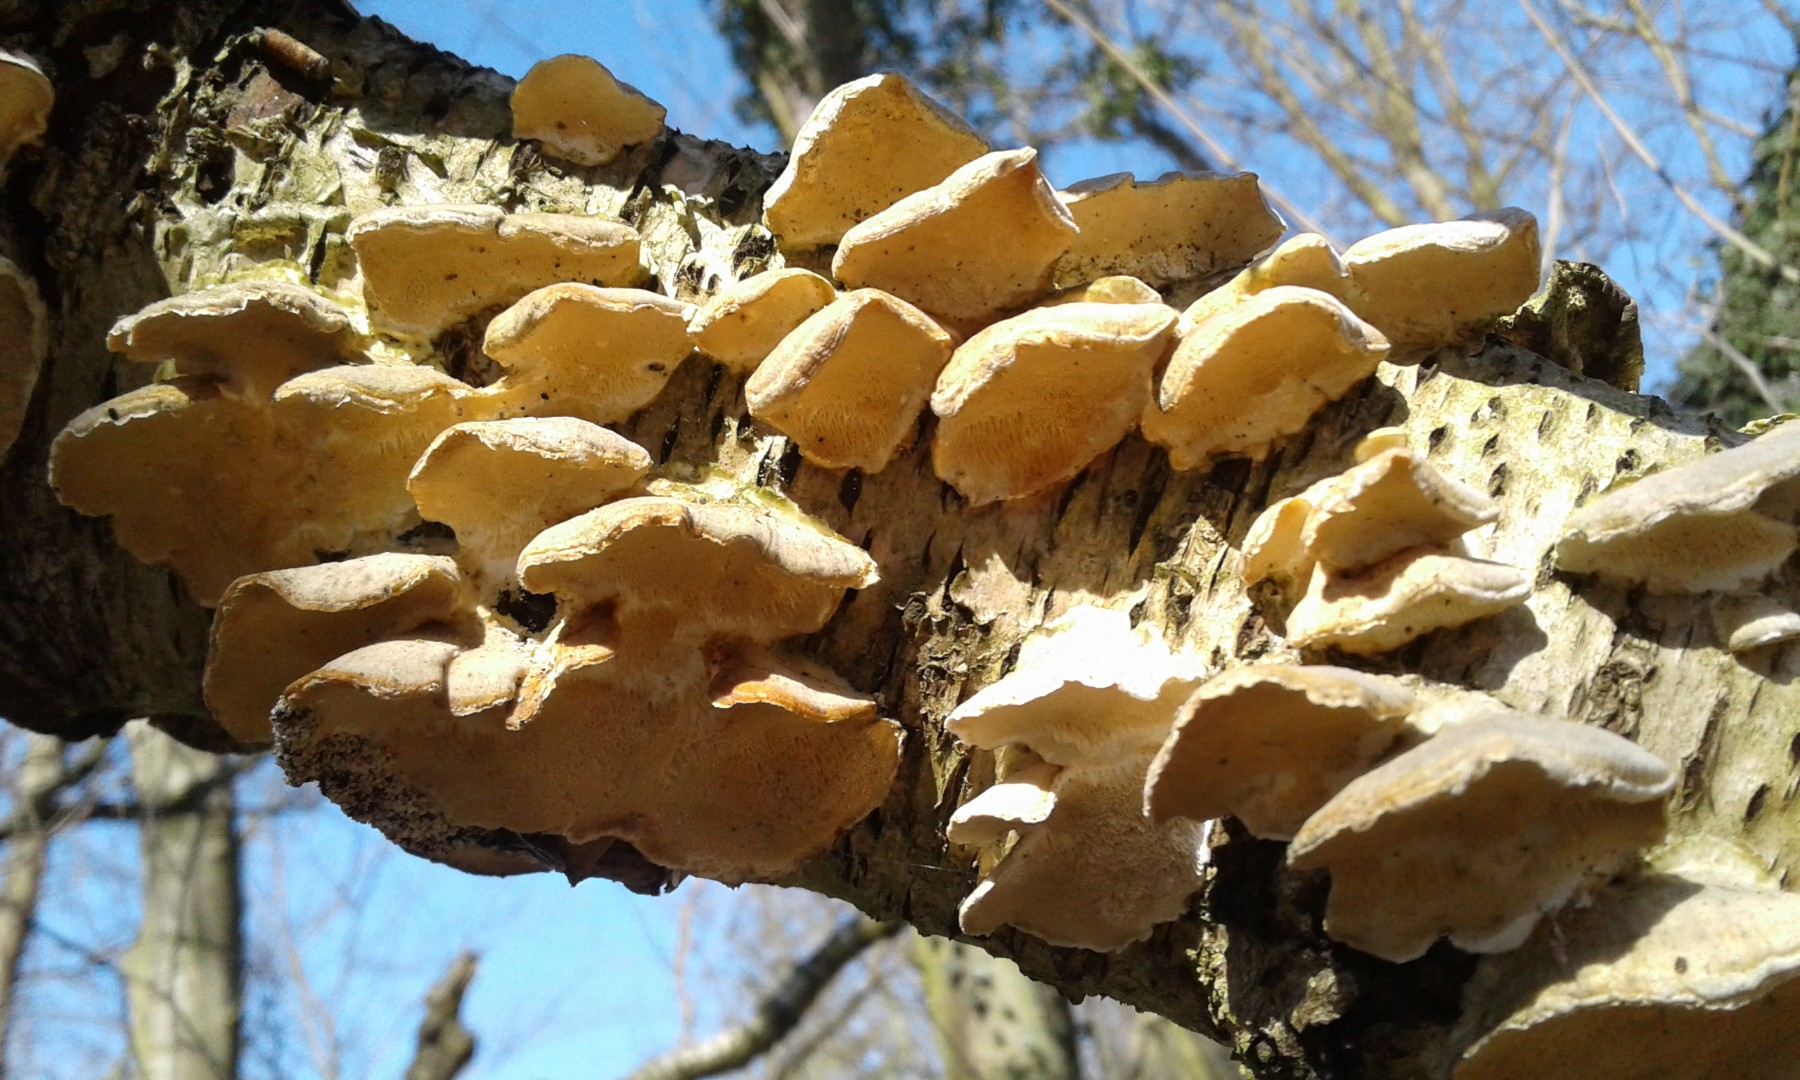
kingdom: Fungi
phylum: Basidiomycota
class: Agaricomycetes
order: Polyporales
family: Polyporaceae
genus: Trametes
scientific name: Trametes ochracea
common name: bæltet læderporesvamp
